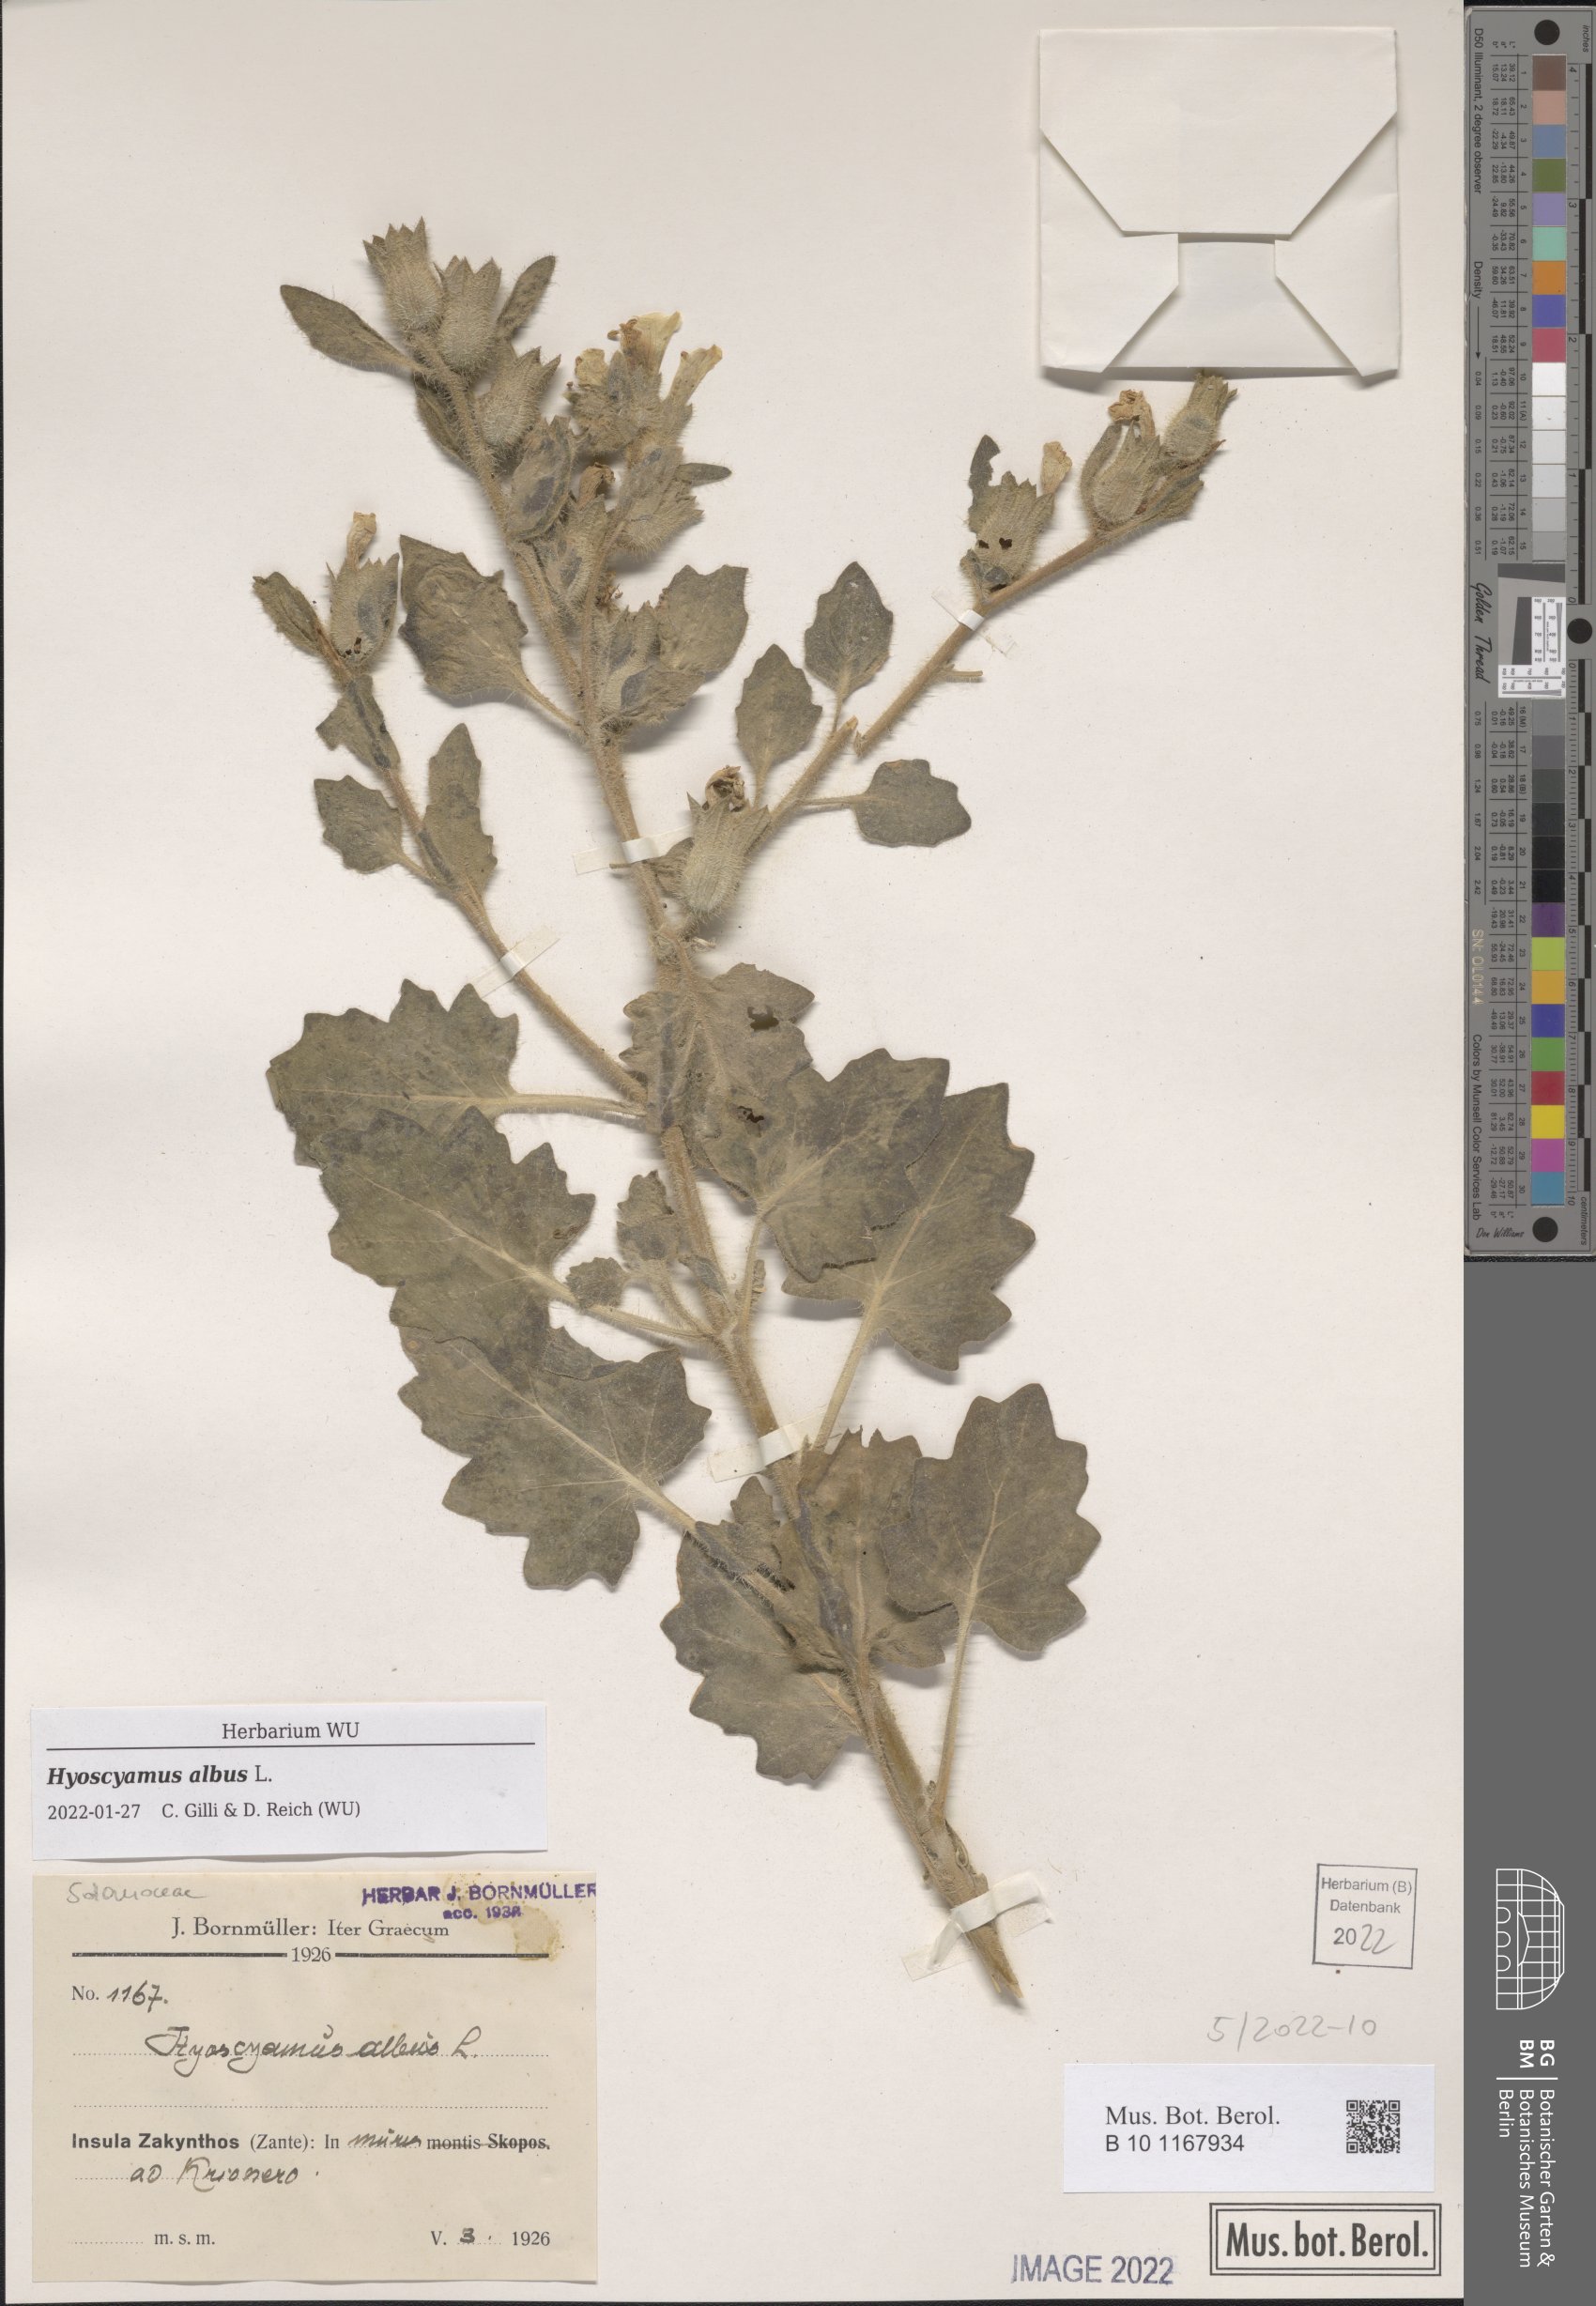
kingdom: Plantae
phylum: Tracheophyta
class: Magnoliopsida
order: Solanales
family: Solanaceae
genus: Hyoscyamus
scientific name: Hyoscyamus albus
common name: White henbane
